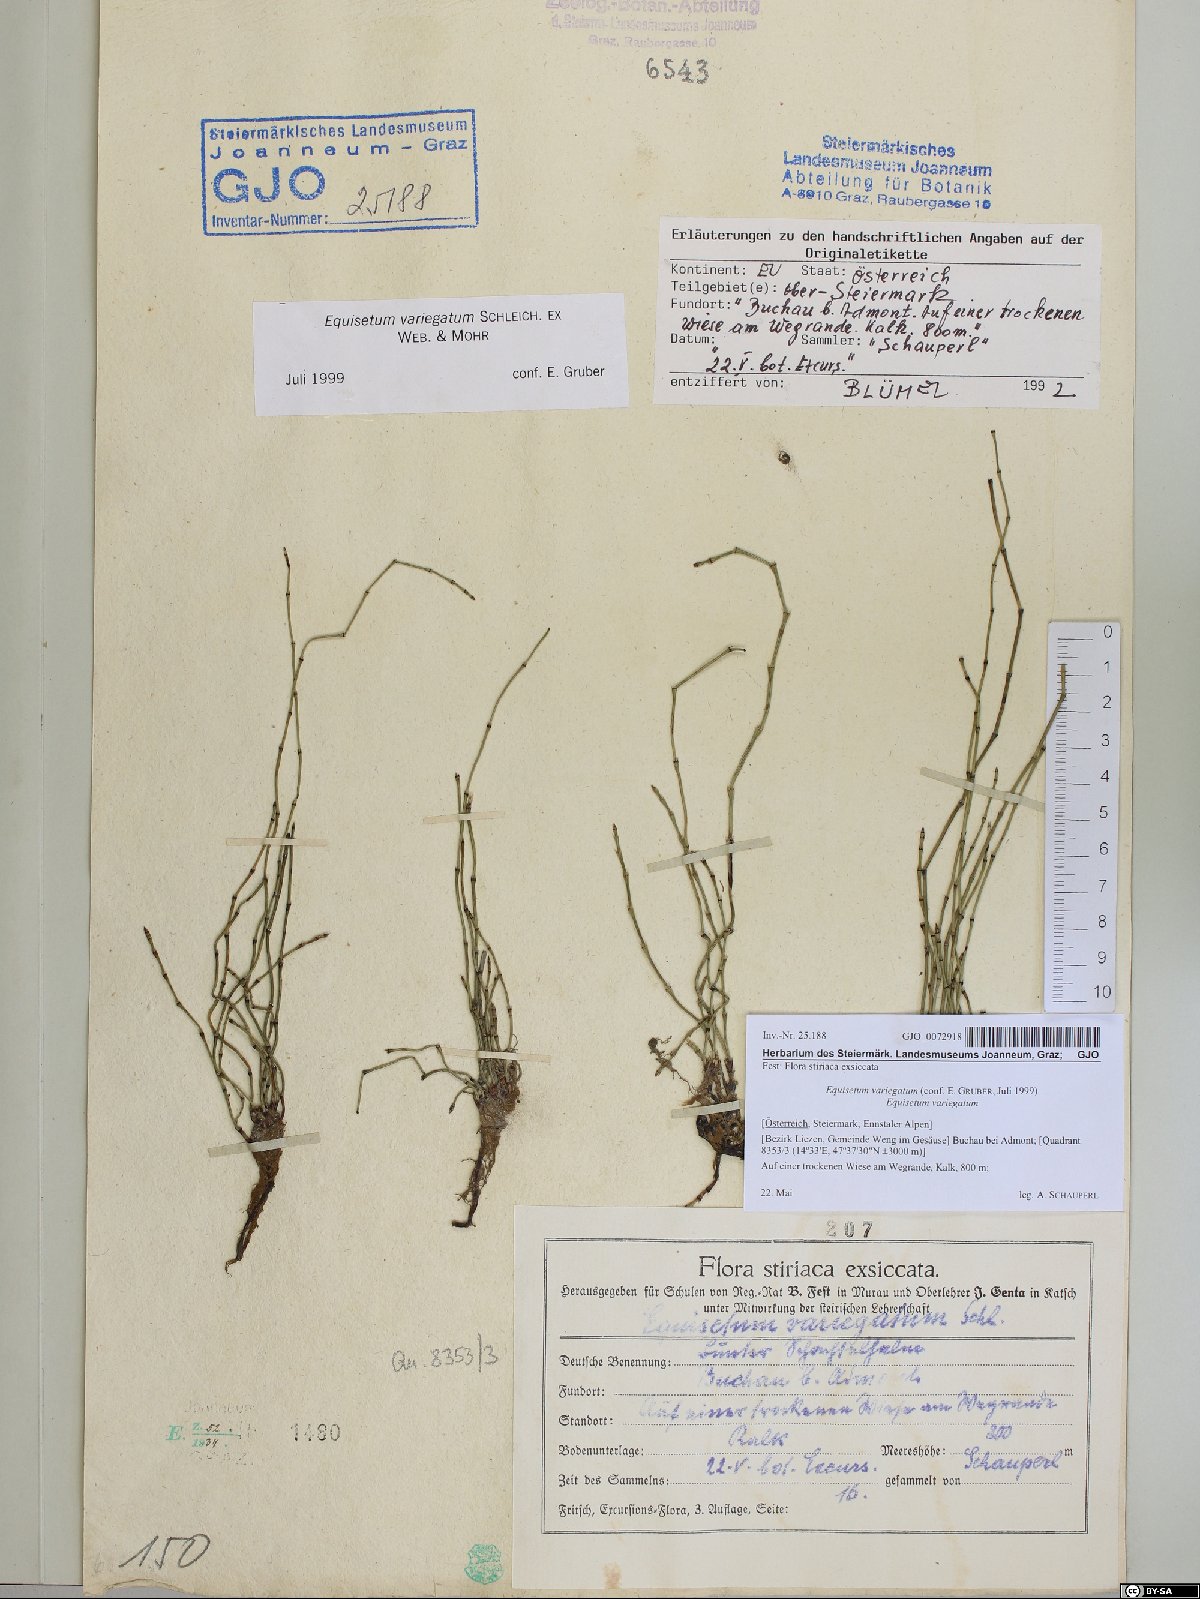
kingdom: Plantae
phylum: Tracheophyta
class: Polypodiopsida
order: Equisetales
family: Equisetaceae
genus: Equisetum
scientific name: Equisetum variegatum
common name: Variegated horsetail
